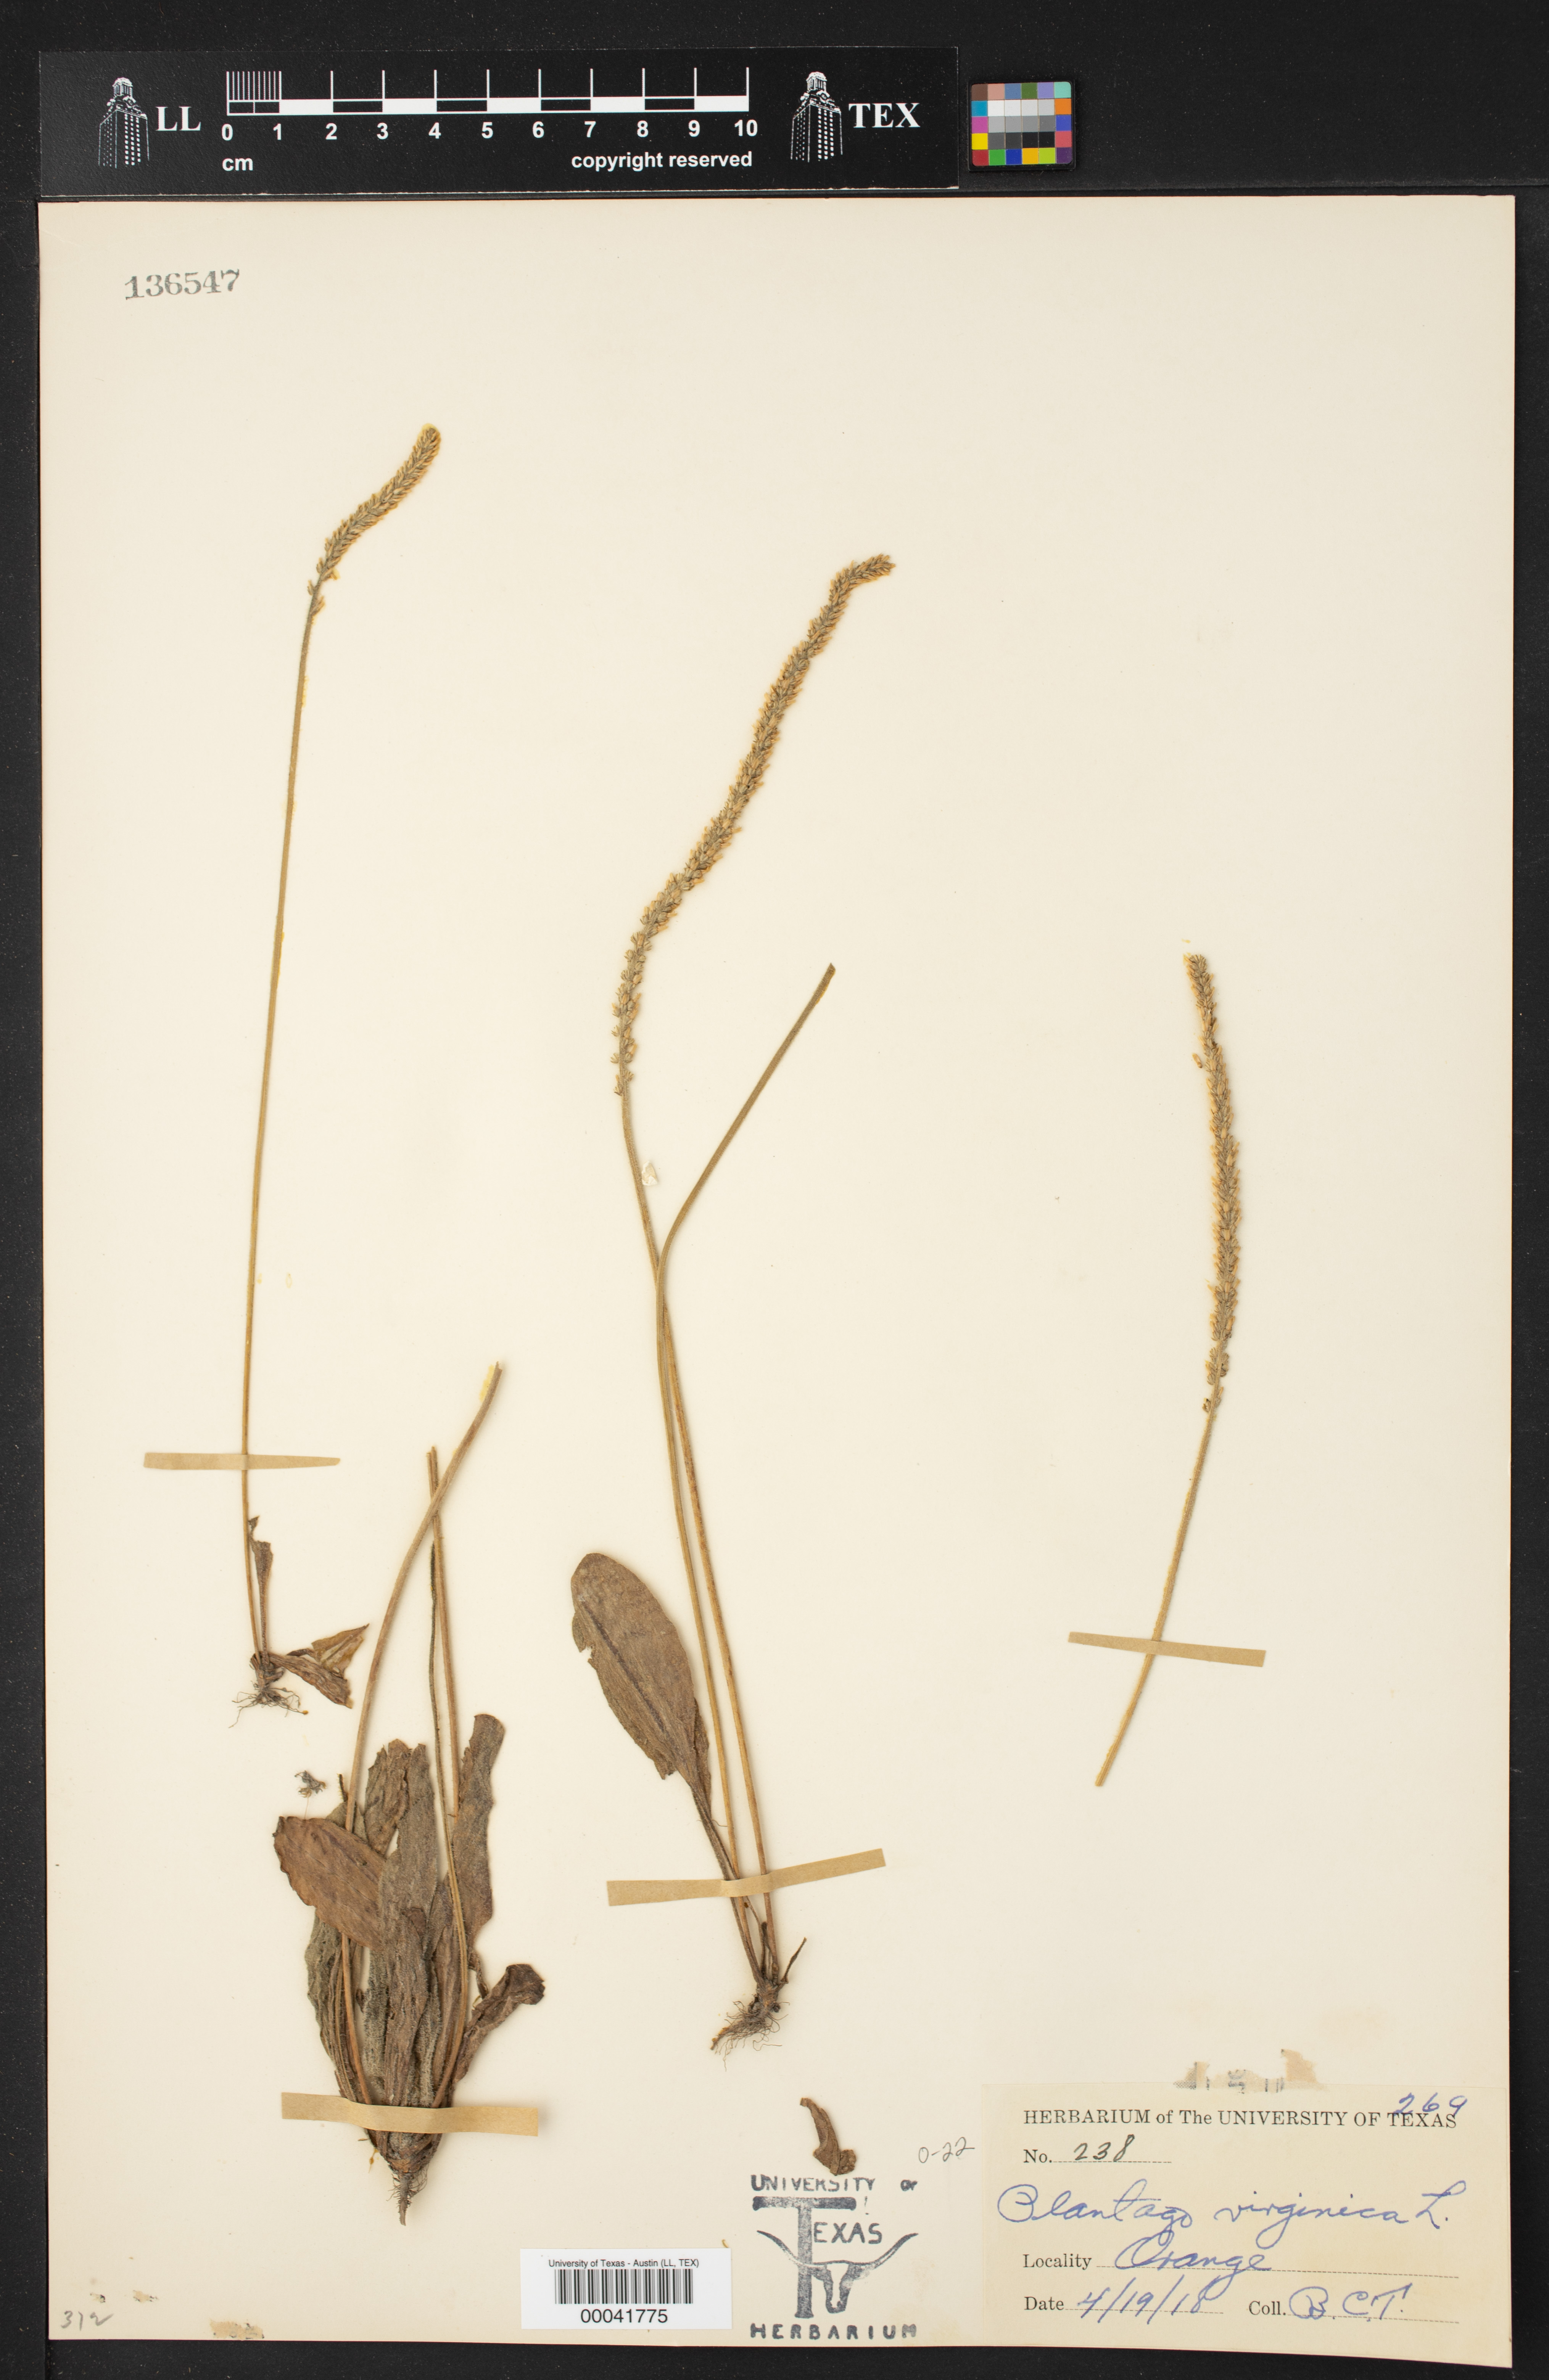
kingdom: Plantae
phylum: Tracheophyta
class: Magnoliopsida
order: Lamiales
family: Plantaginaceae
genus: Plantago
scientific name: Plantago virginica
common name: Hoary plantain
